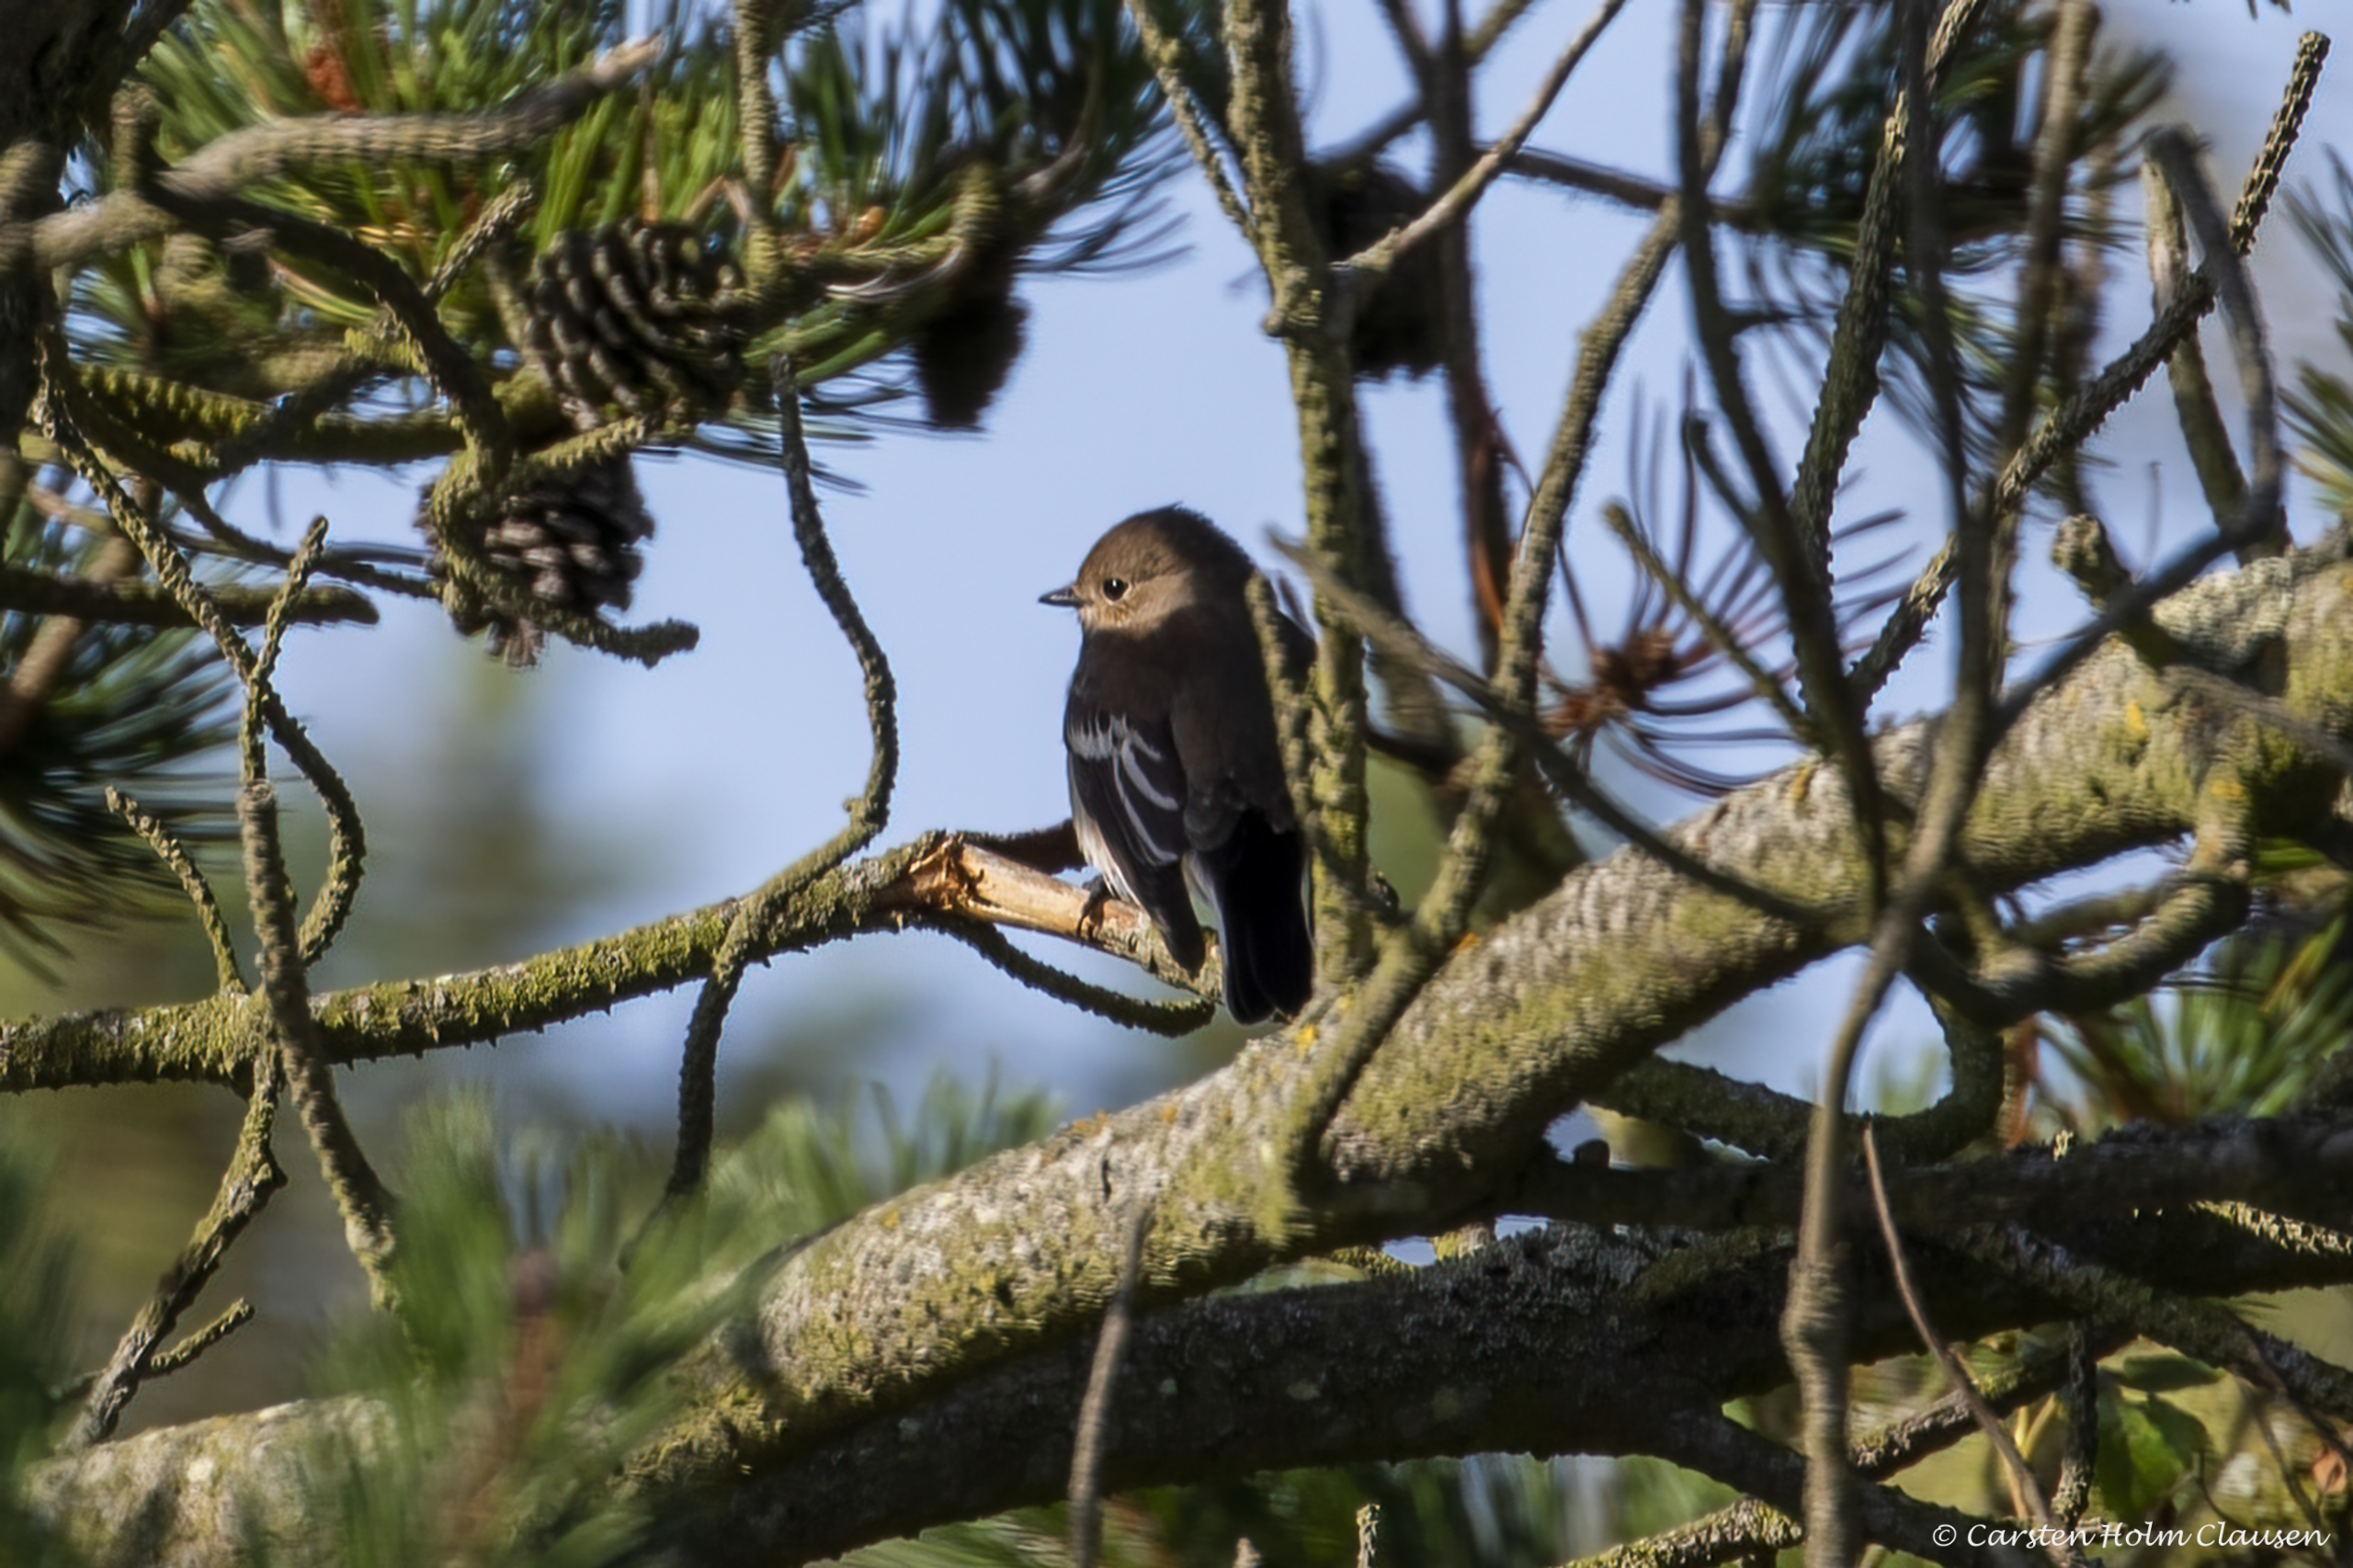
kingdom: Animalia
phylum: Chordata
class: Aves
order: Passeriformes
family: Muscicapidae
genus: Ficedula
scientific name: Ficedula hypoleuca
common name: Broget fluesnapper
